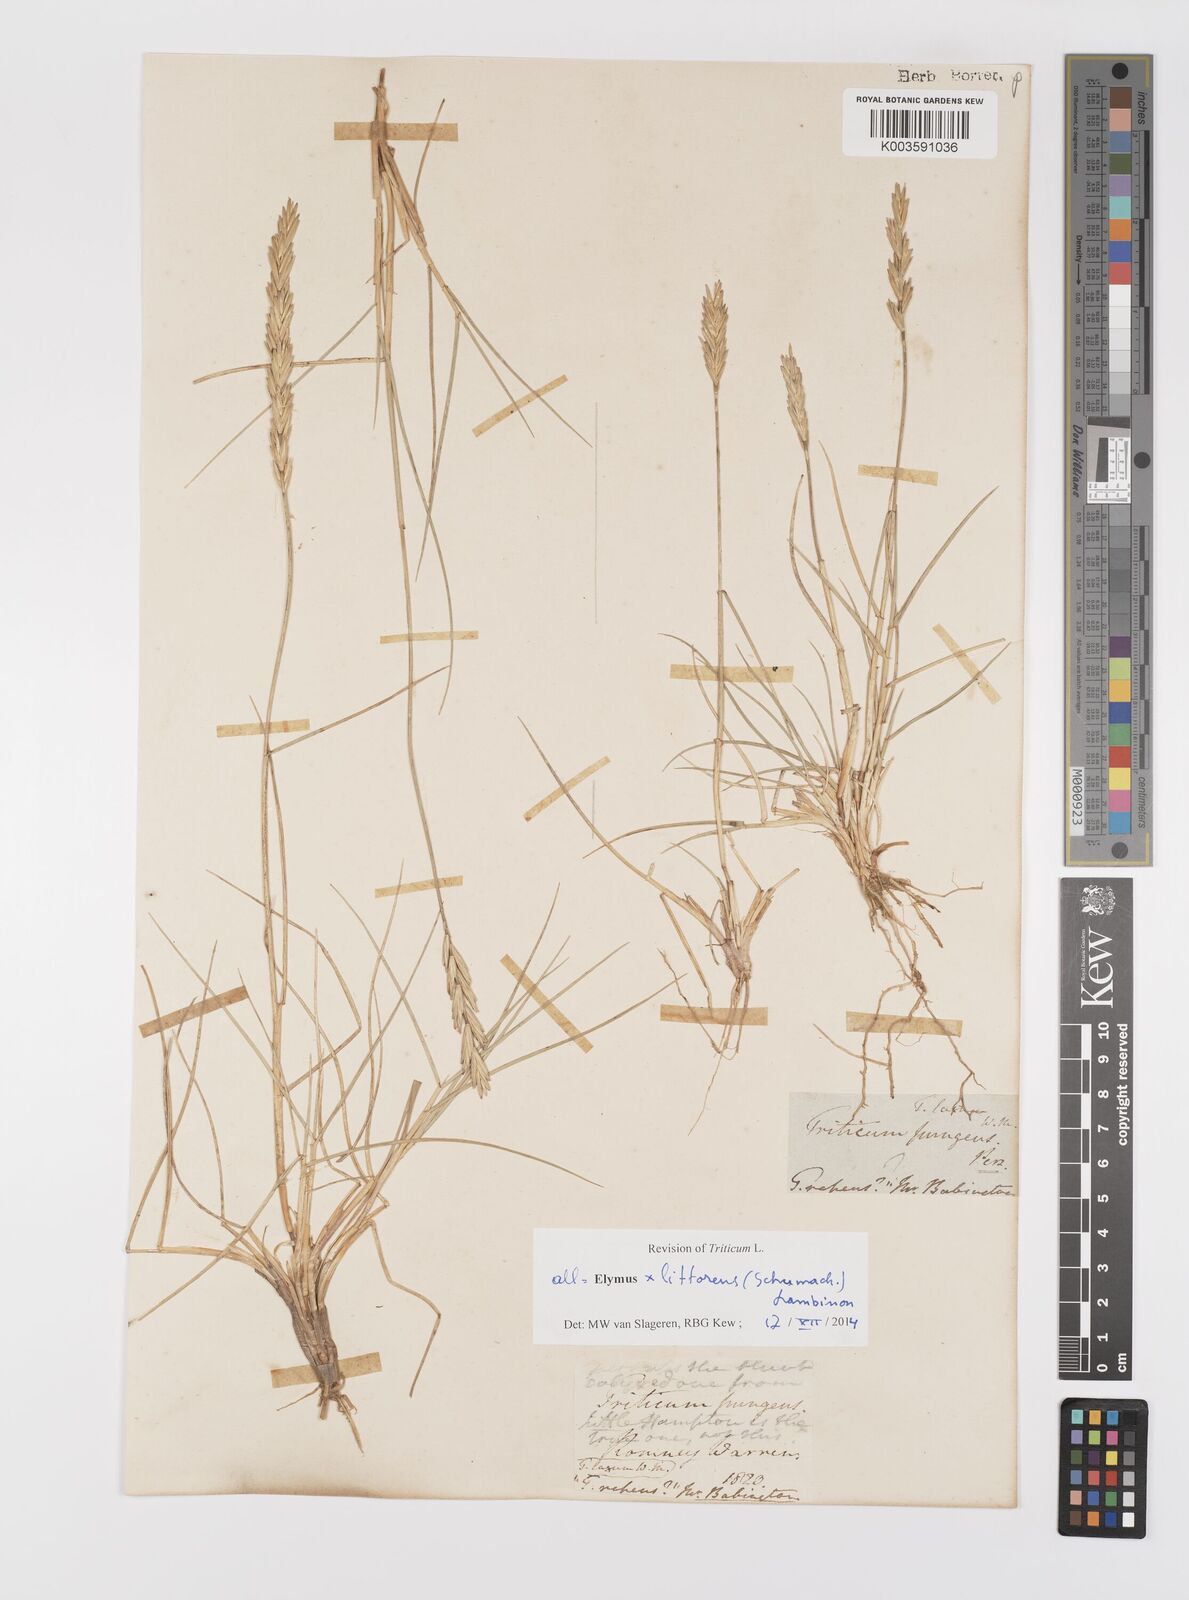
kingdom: Plantae
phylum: Tracheophyta
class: Liliopsida
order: Poales
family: Poaceae
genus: Leymus
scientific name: Leymus
